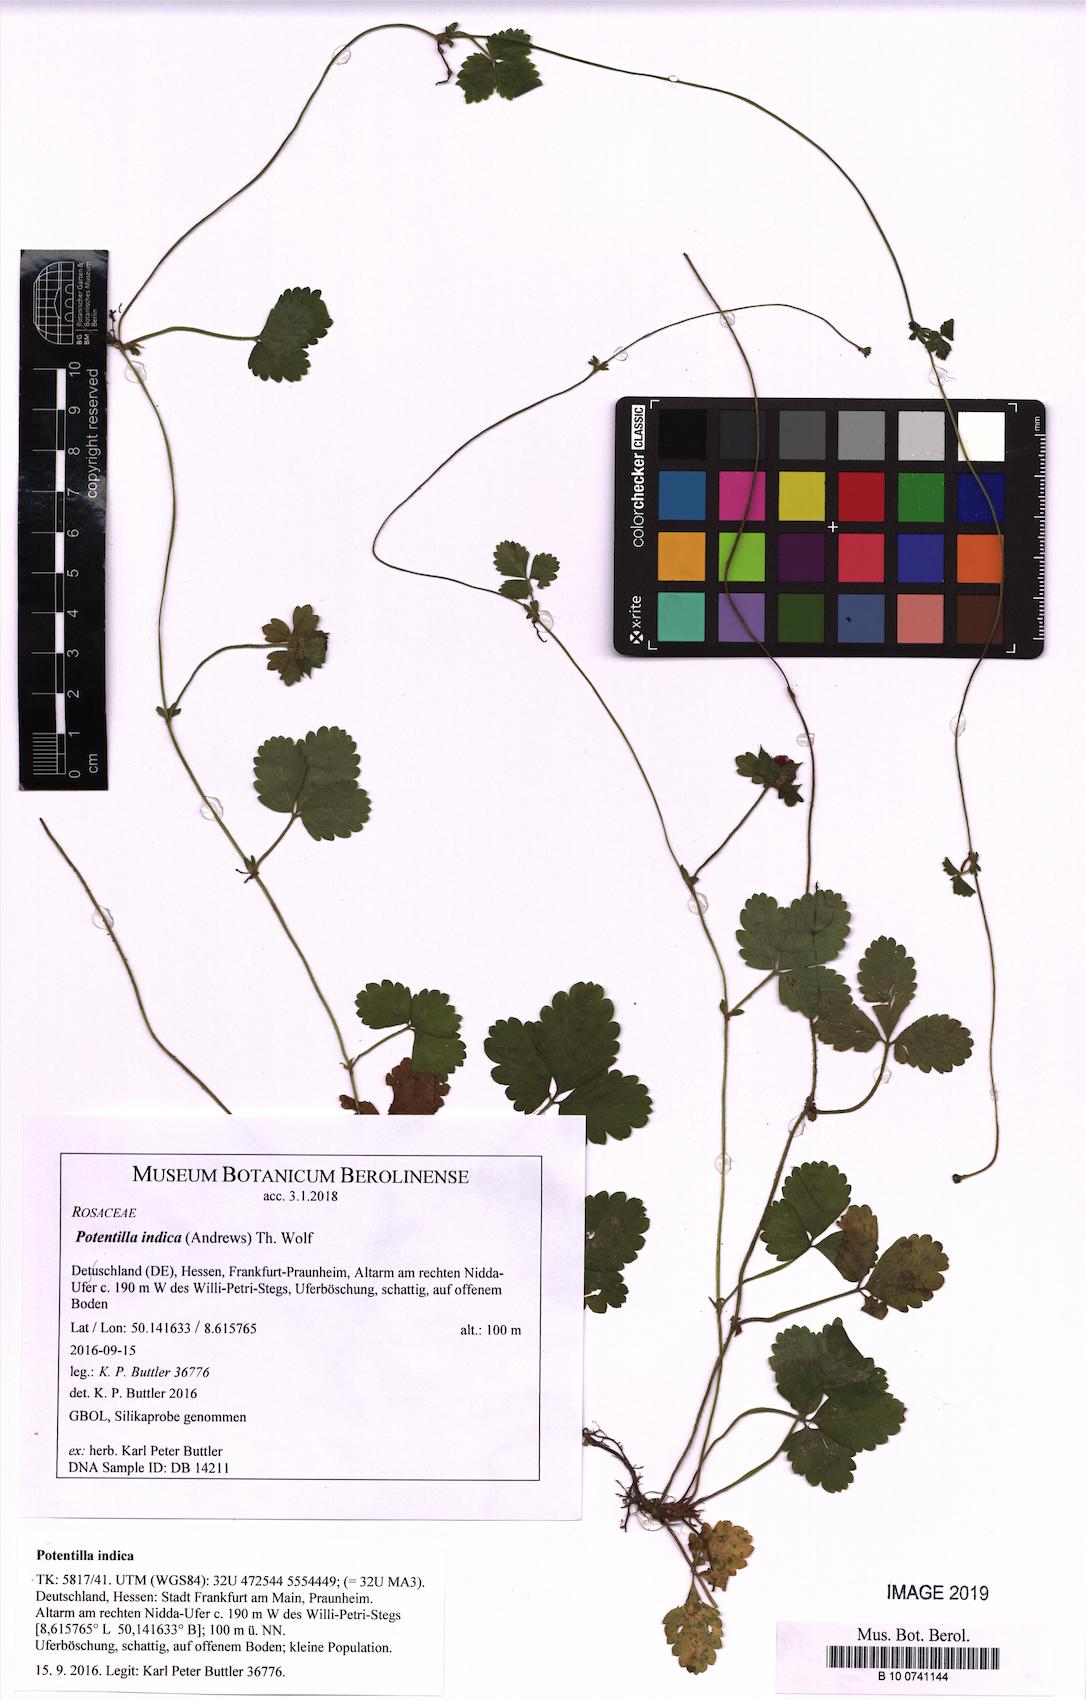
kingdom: Plantae
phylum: Tracheophyta
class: Magnoliopsida
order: Rosales
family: Rosaceae
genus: Potentilla
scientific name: Potentilla indica
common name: Yellow-flowered strawberry
